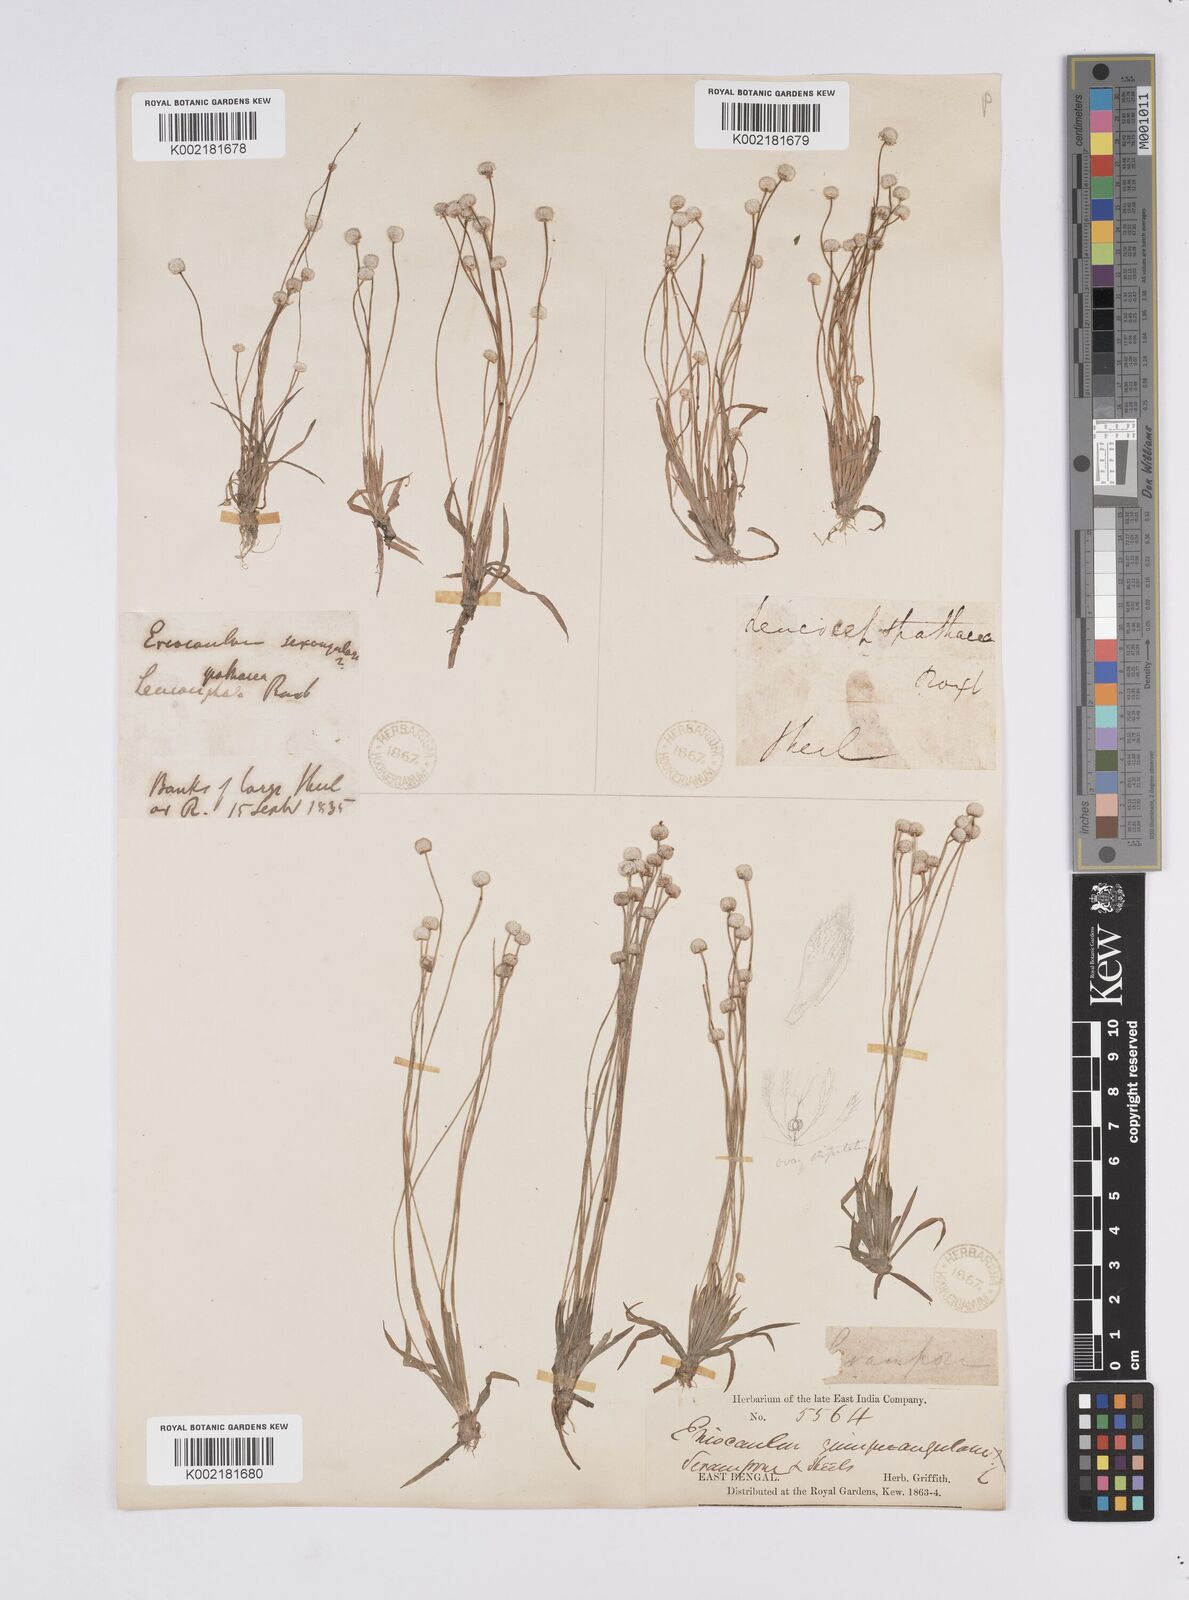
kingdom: Plantae
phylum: Tracheophyta
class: Liliopsida
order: Poales
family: Eriocaulaceae
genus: Eriocaulon
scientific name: Eriocaulon quinquangulare
